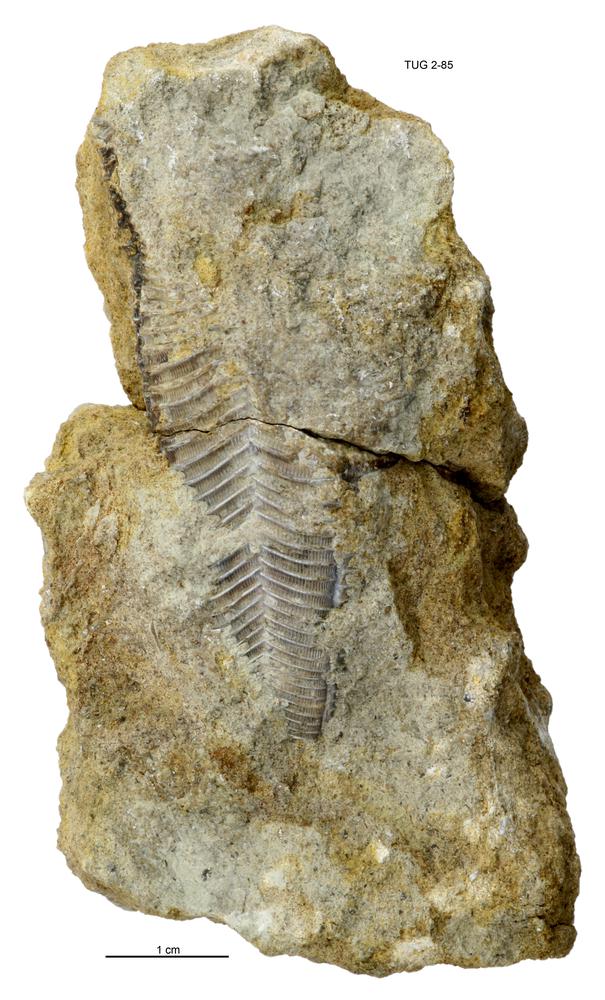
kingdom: Animalia
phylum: Cnidaria
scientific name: Cnidaria
